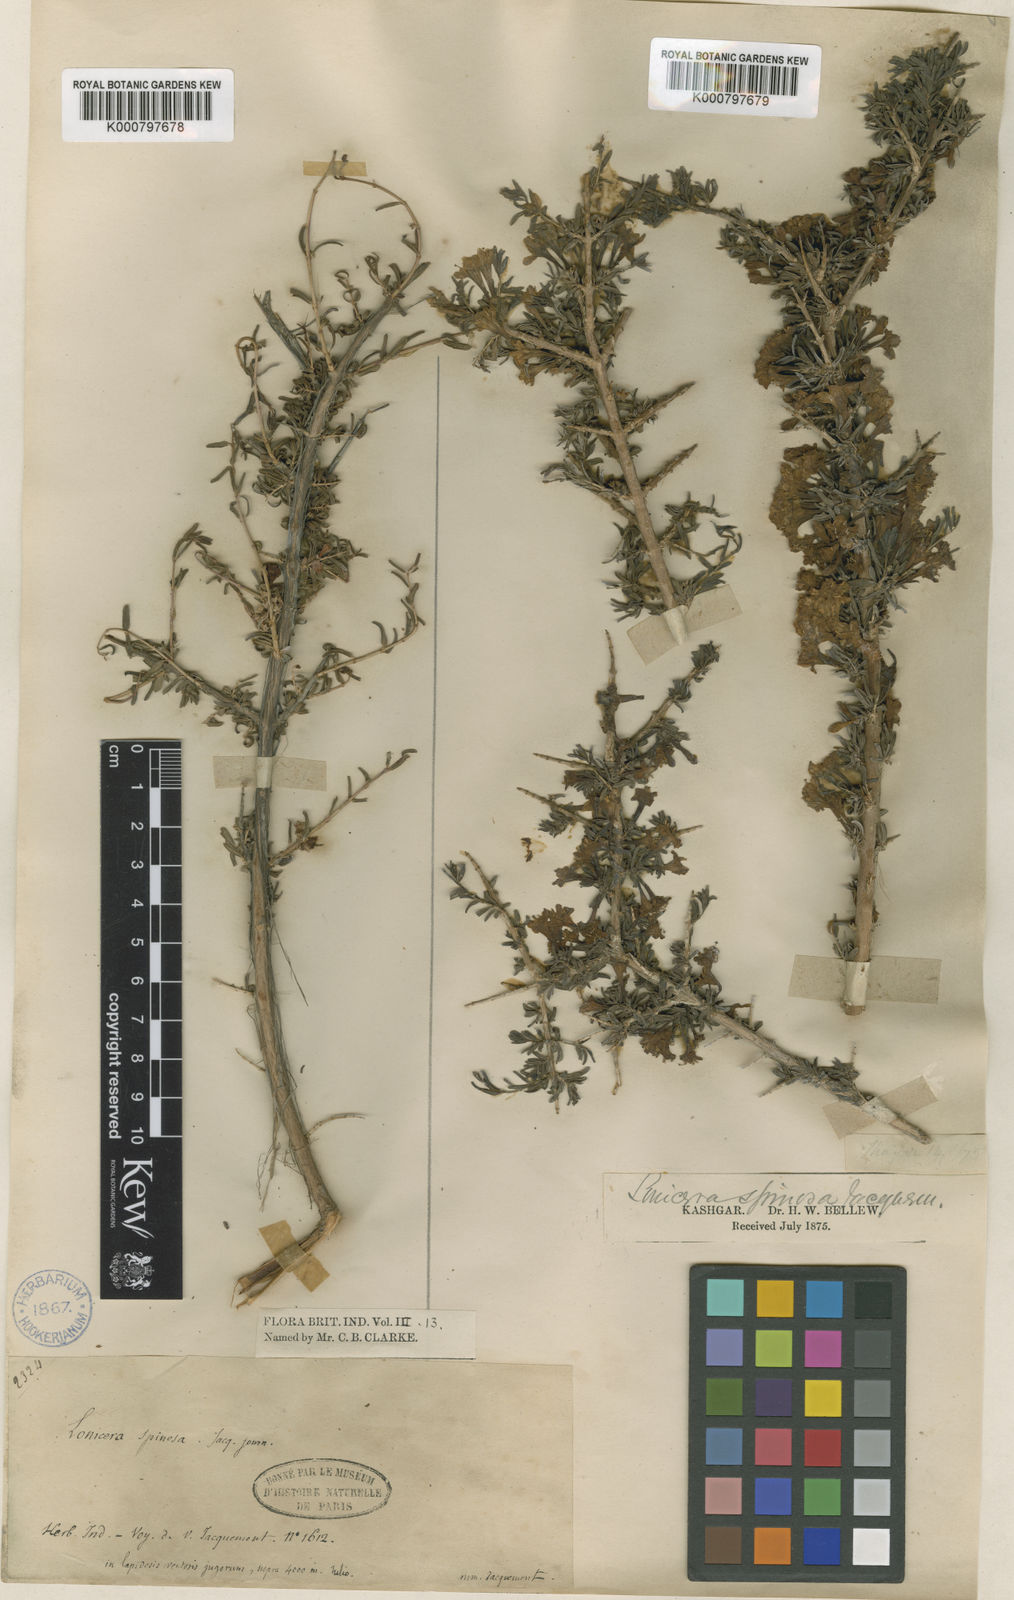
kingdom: Plantae
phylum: Tracheophyta
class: Magnoliopsida
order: Dipsacales
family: Caprifoliaceae
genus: Lonicera
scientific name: Lonicera
